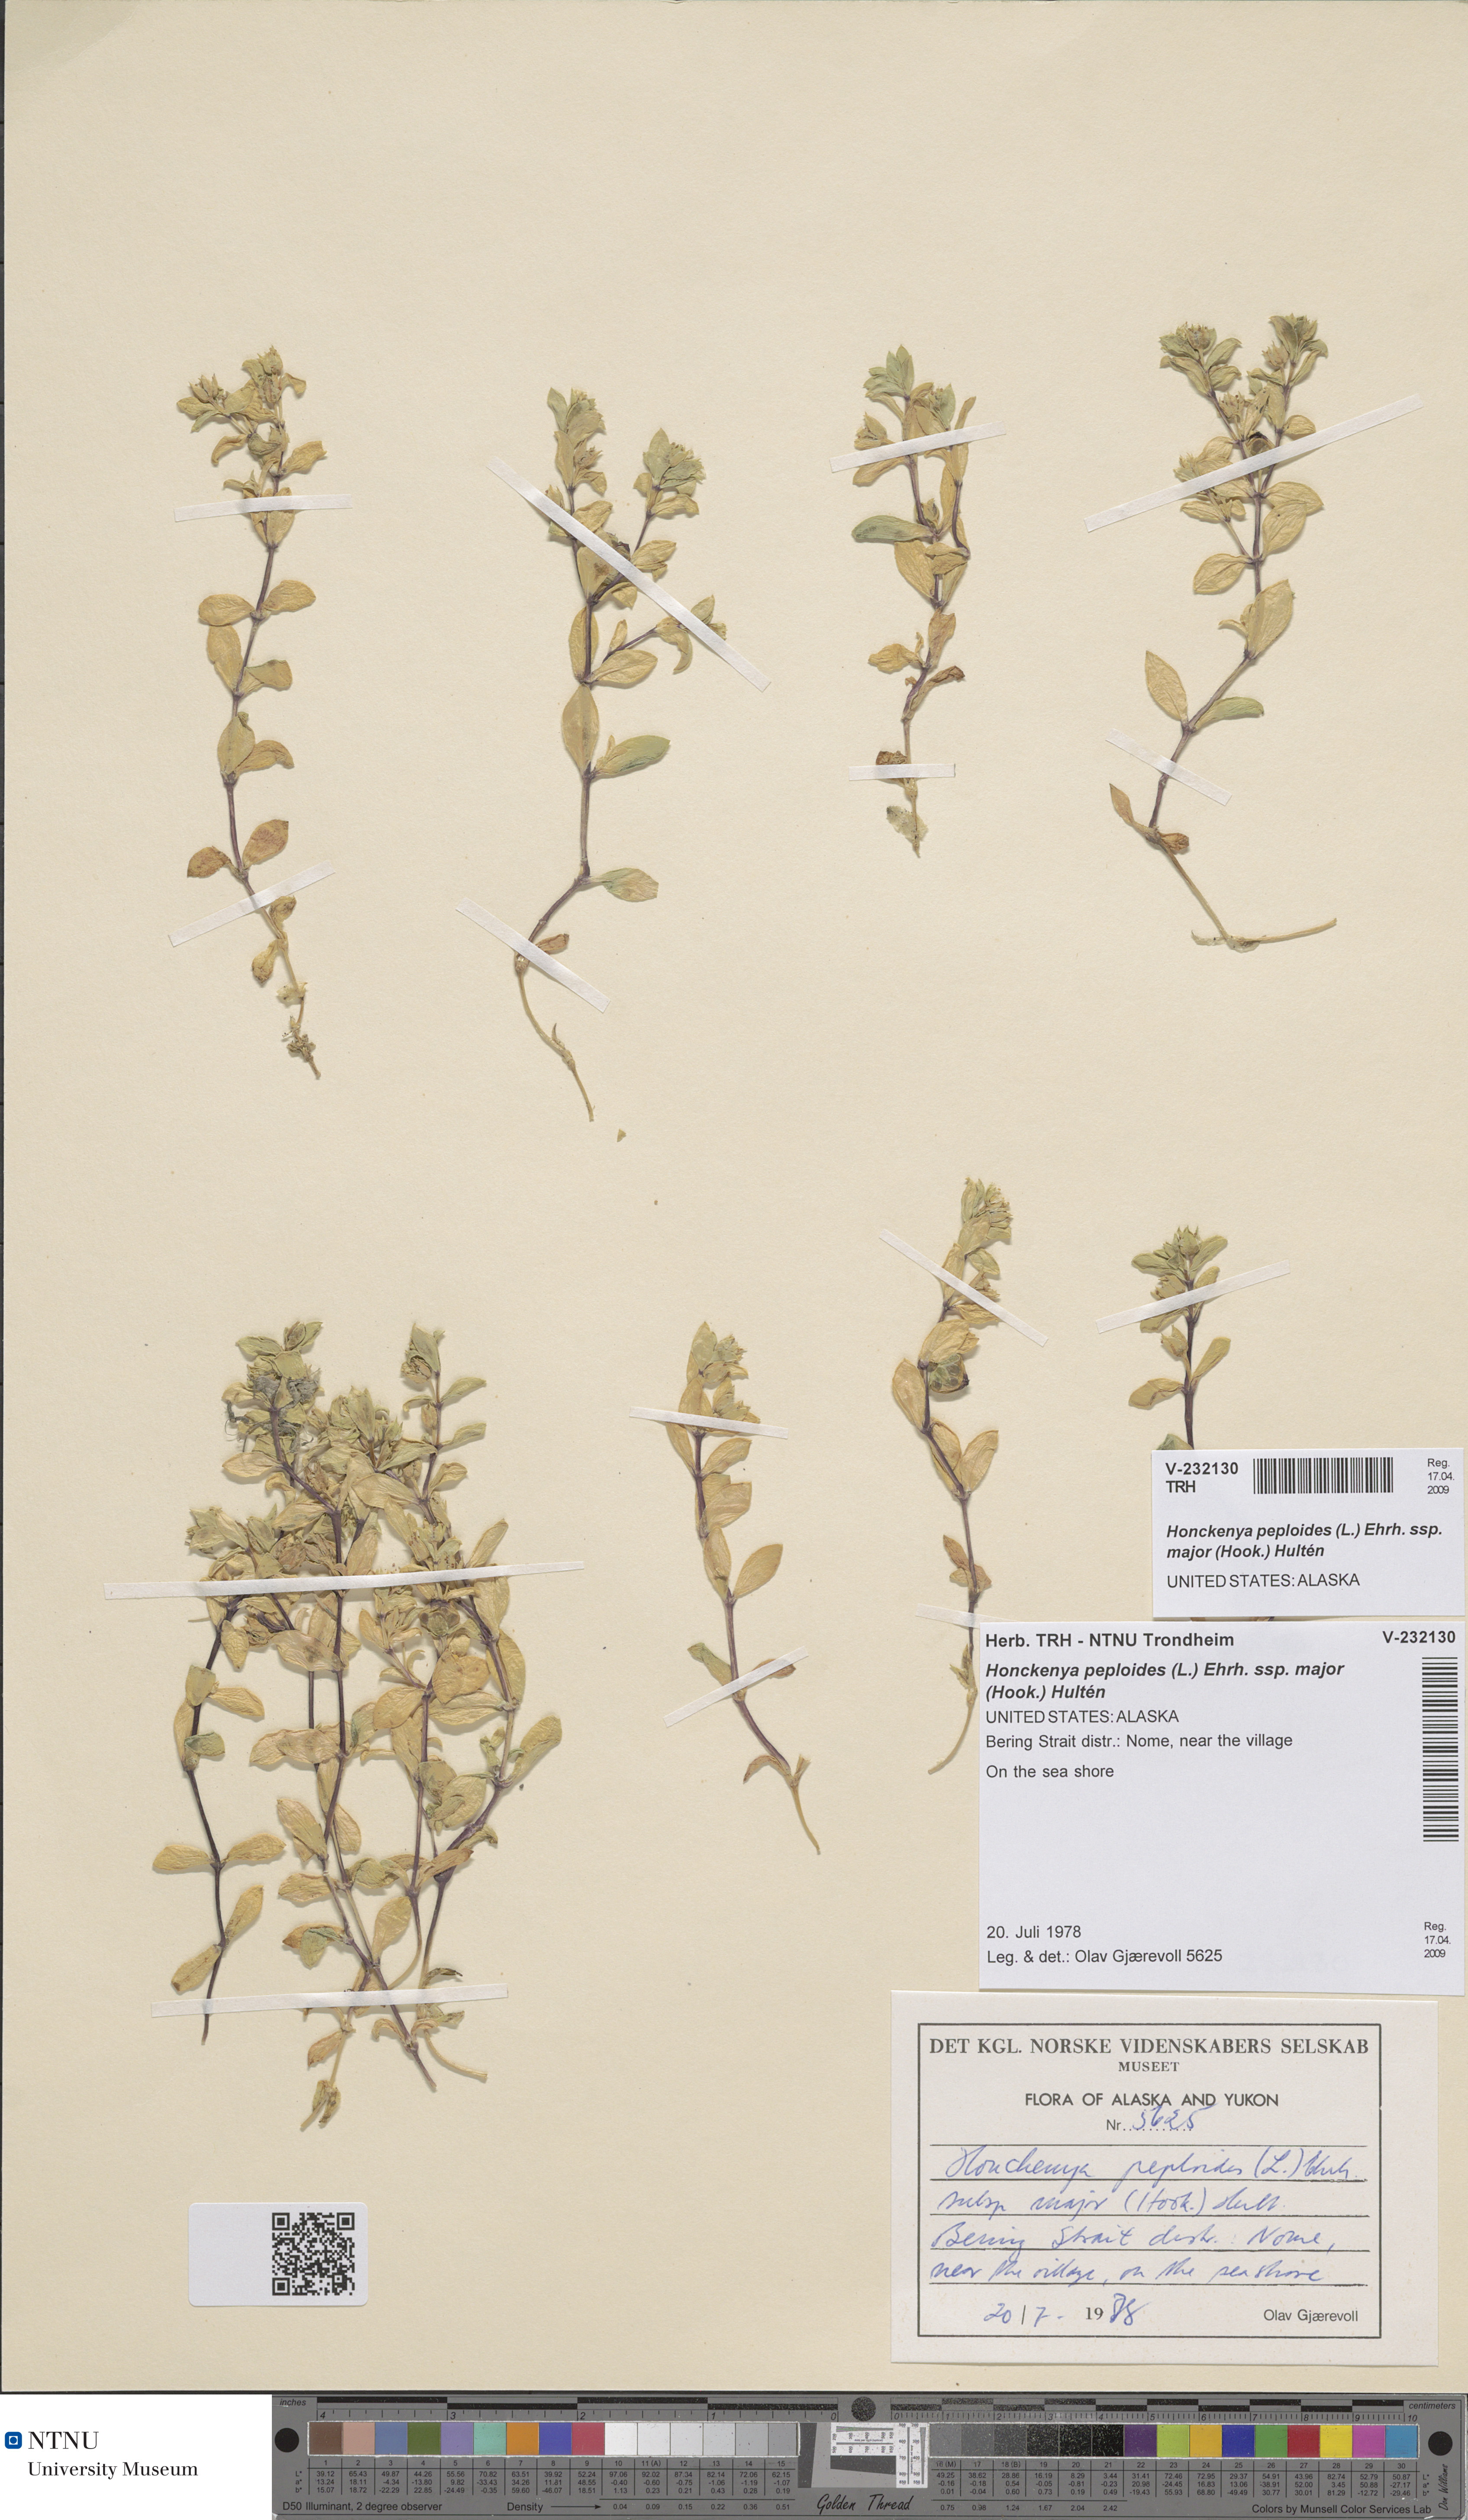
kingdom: Plantae
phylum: Tracheophyta
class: Magnoliopsida
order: Caryophyllales
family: Caryophyllaceae
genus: Honckenya
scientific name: Honckenya peploides
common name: Sea sandwort
